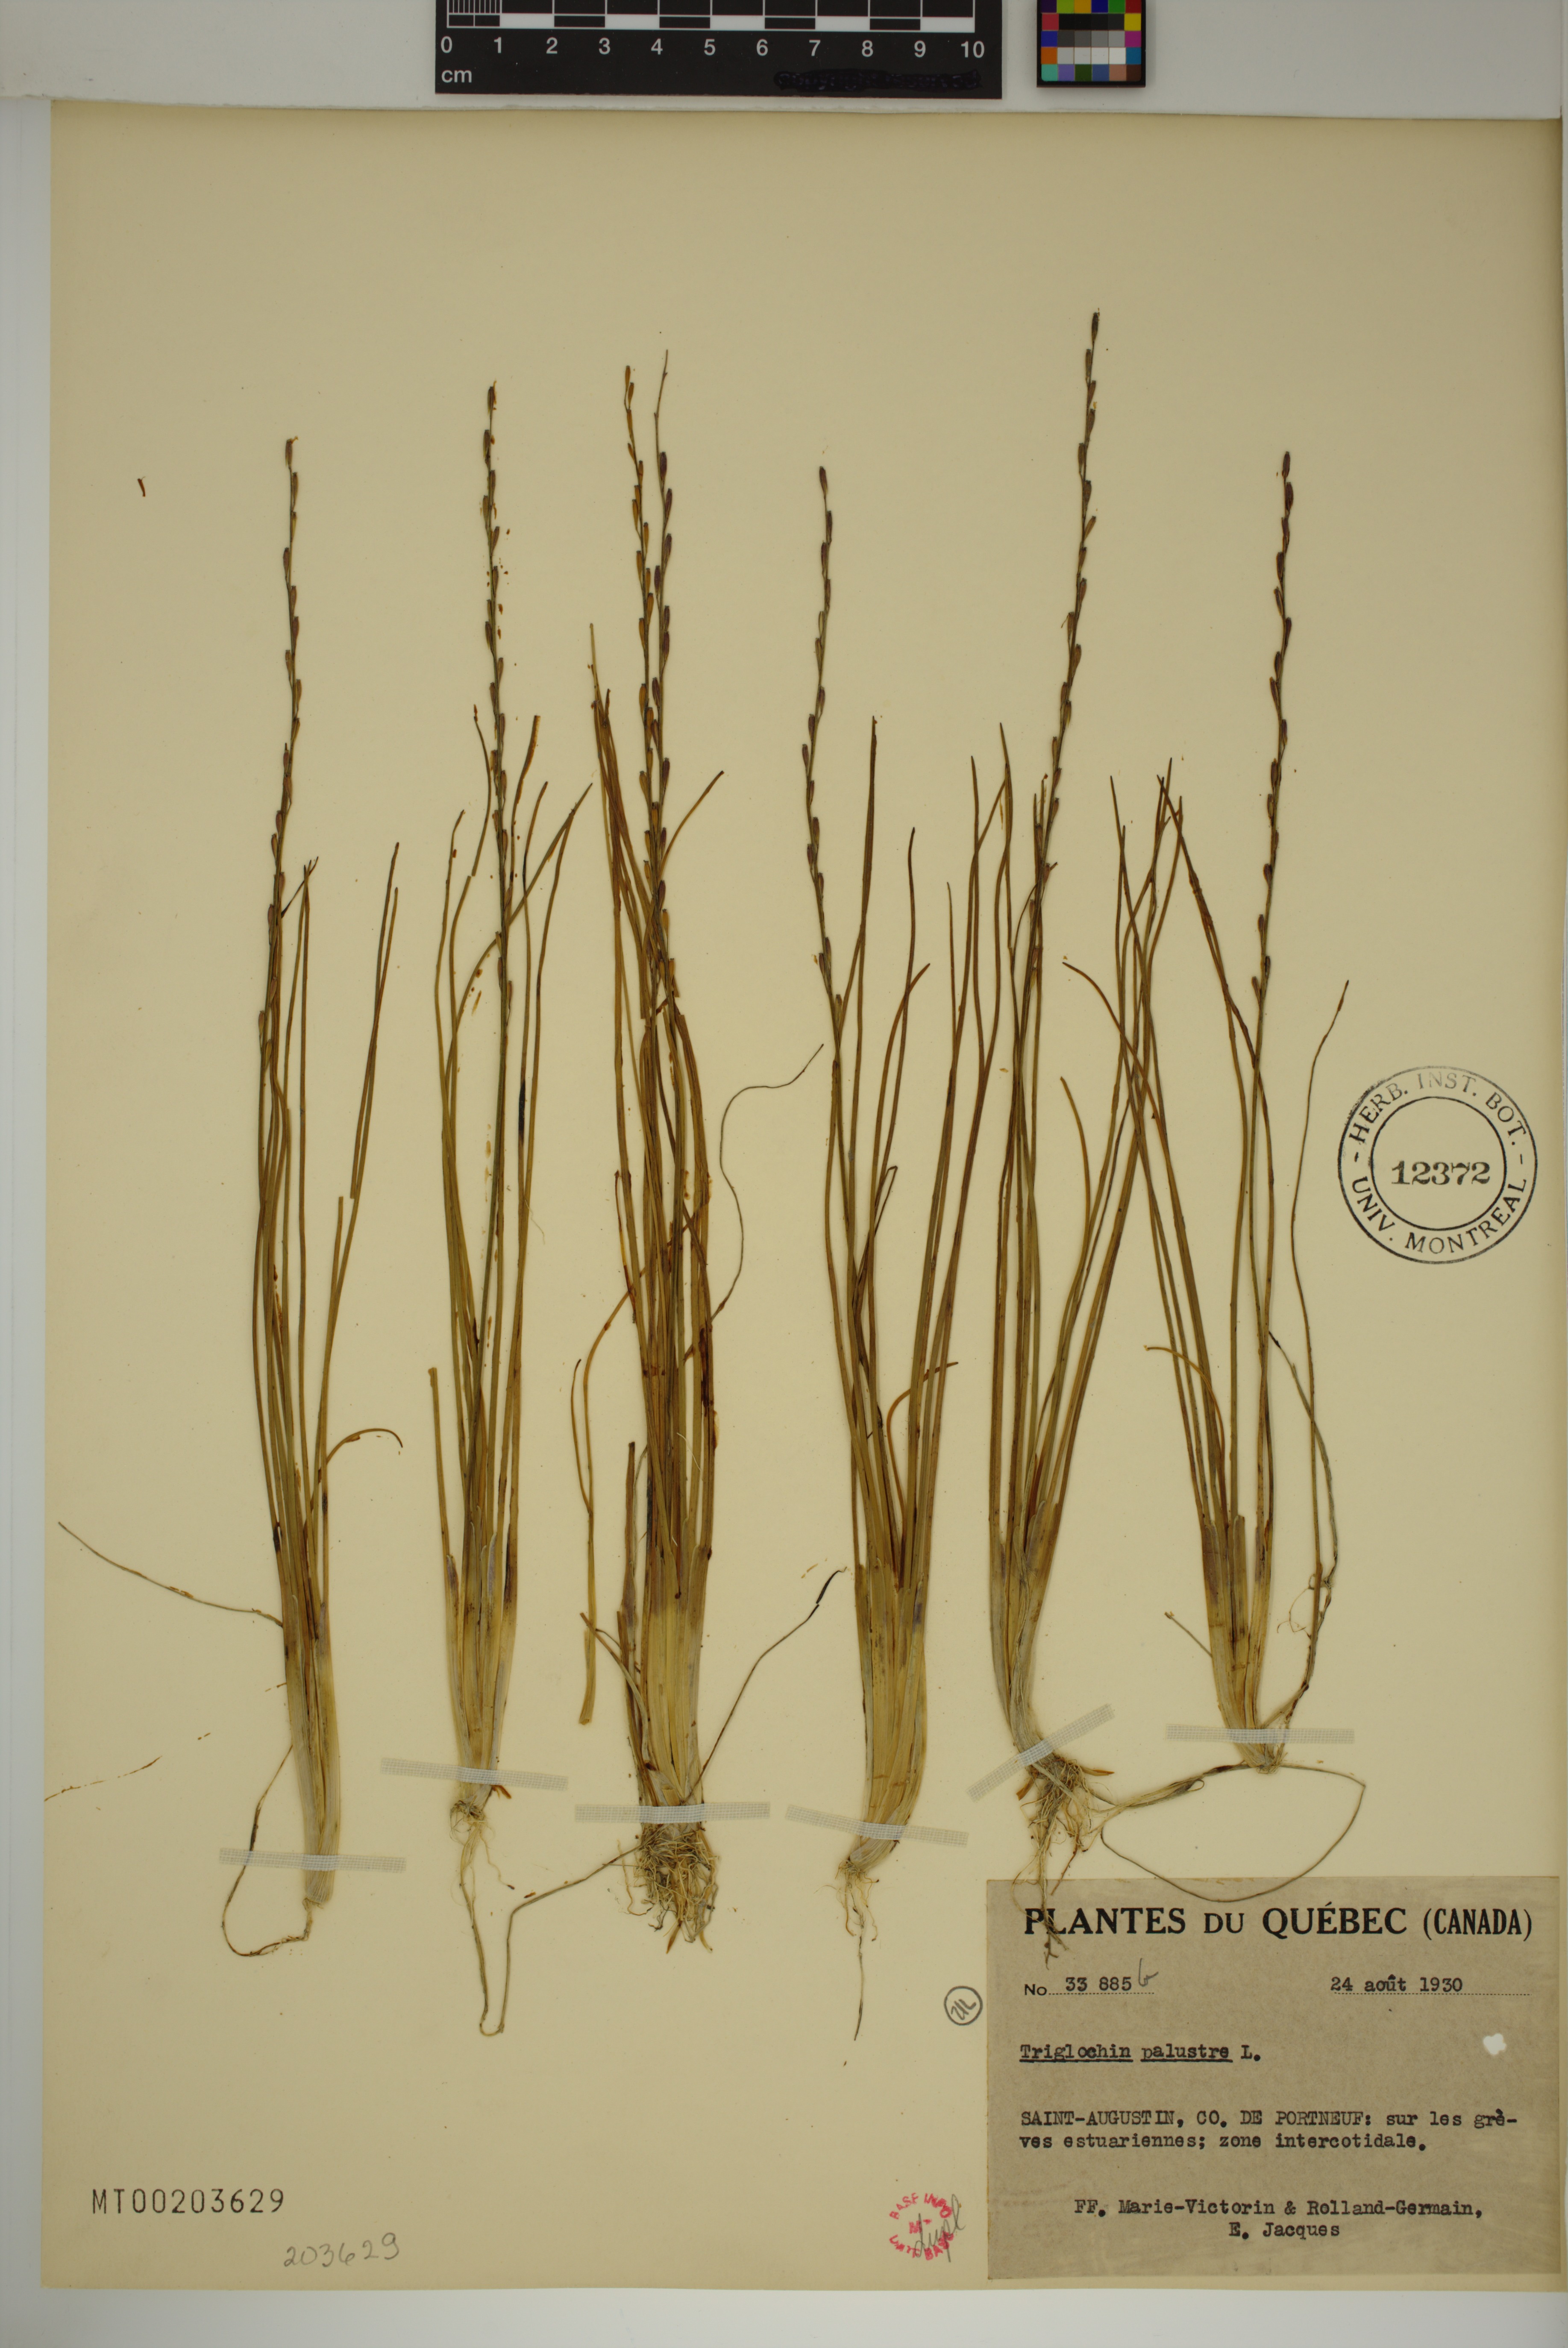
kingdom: Plantae
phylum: Tracheophyta
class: Liliopsida
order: Alismatales
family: Juncaginaceae
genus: Triglochin
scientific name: Triglochin palustris
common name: Marsh arrowgrass
